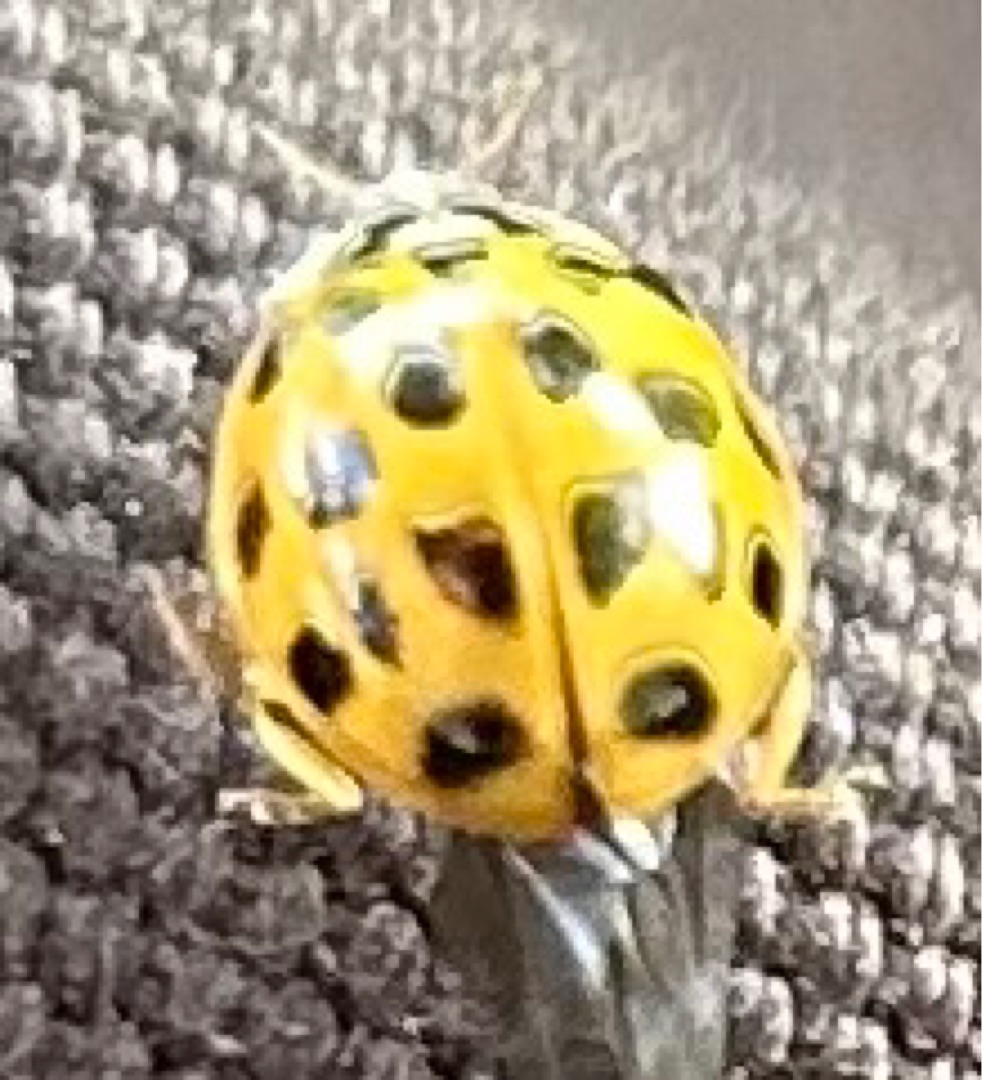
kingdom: Animalia
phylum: Arthropoda
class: Insecta
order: Coleoptera
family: Coccinellidae
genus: Harmonia
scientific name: Harmonia axyridis
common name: Harlekinmariehøne
